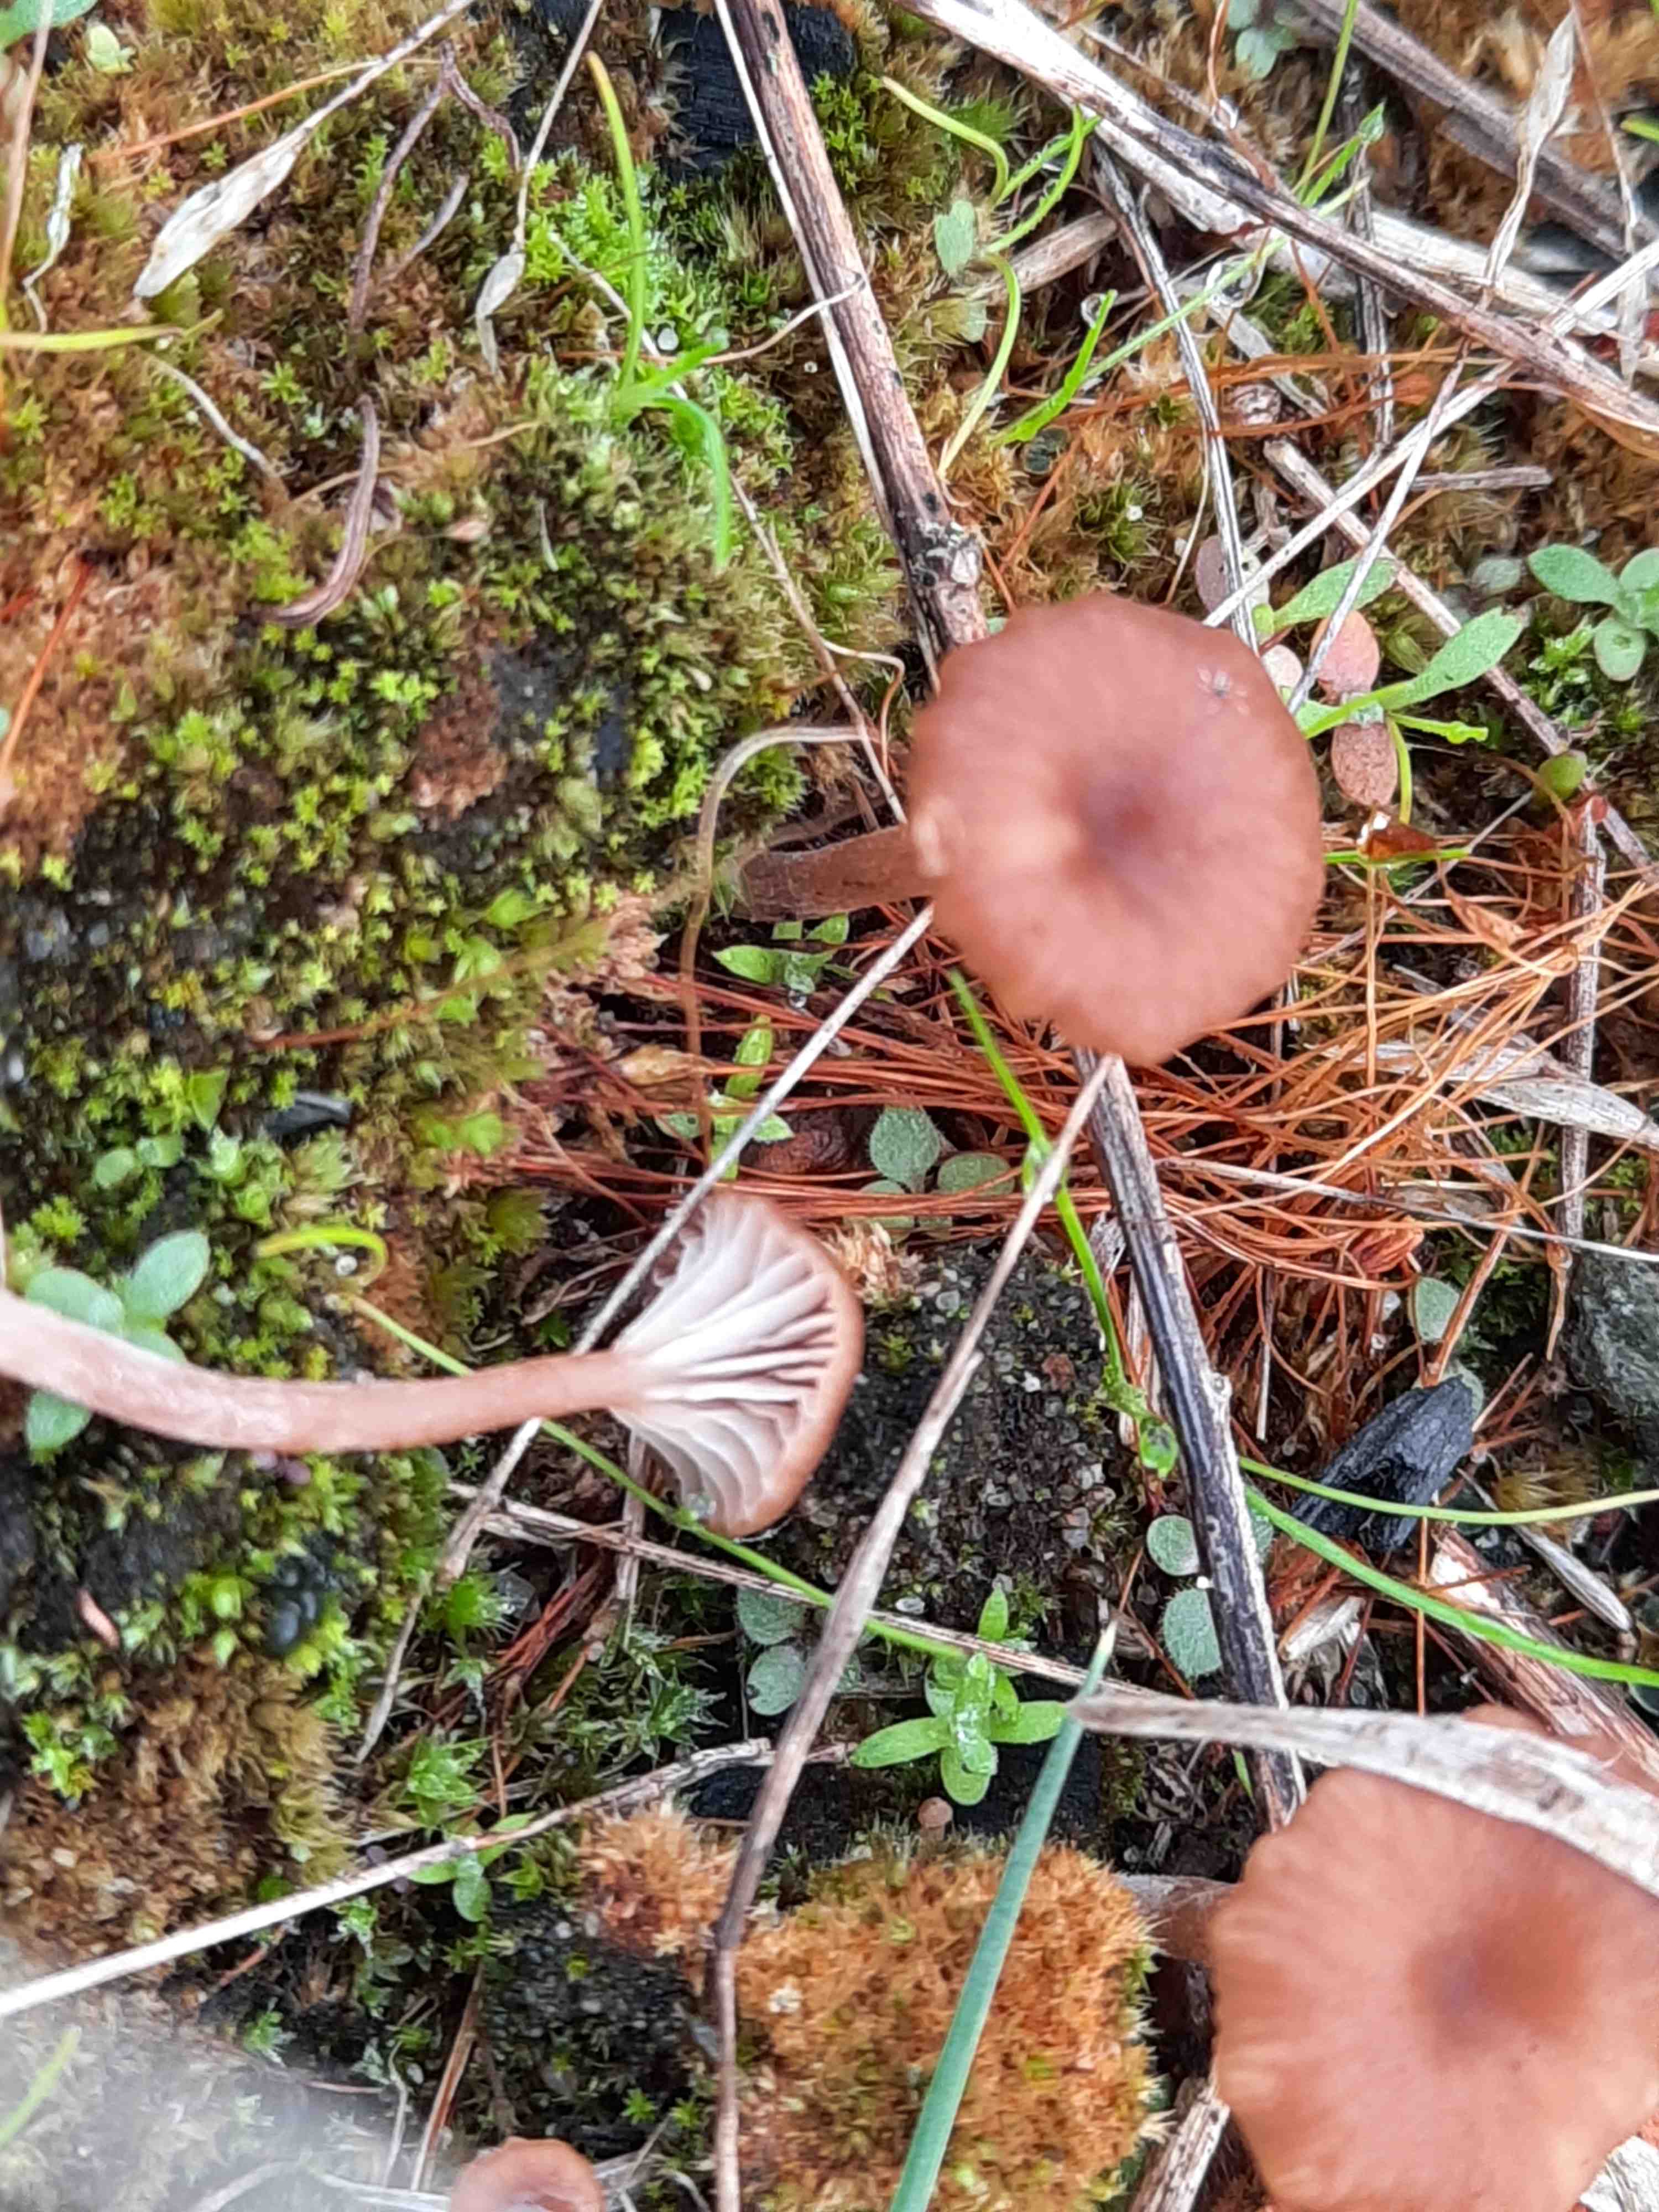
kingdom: Fungi
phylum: Basidiomycota
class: Agaricomycetes
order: Agaricales
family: Tricholomataceae
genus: Omphalina
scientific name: Omphalina pyxidata
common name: rødbrun navlehat
